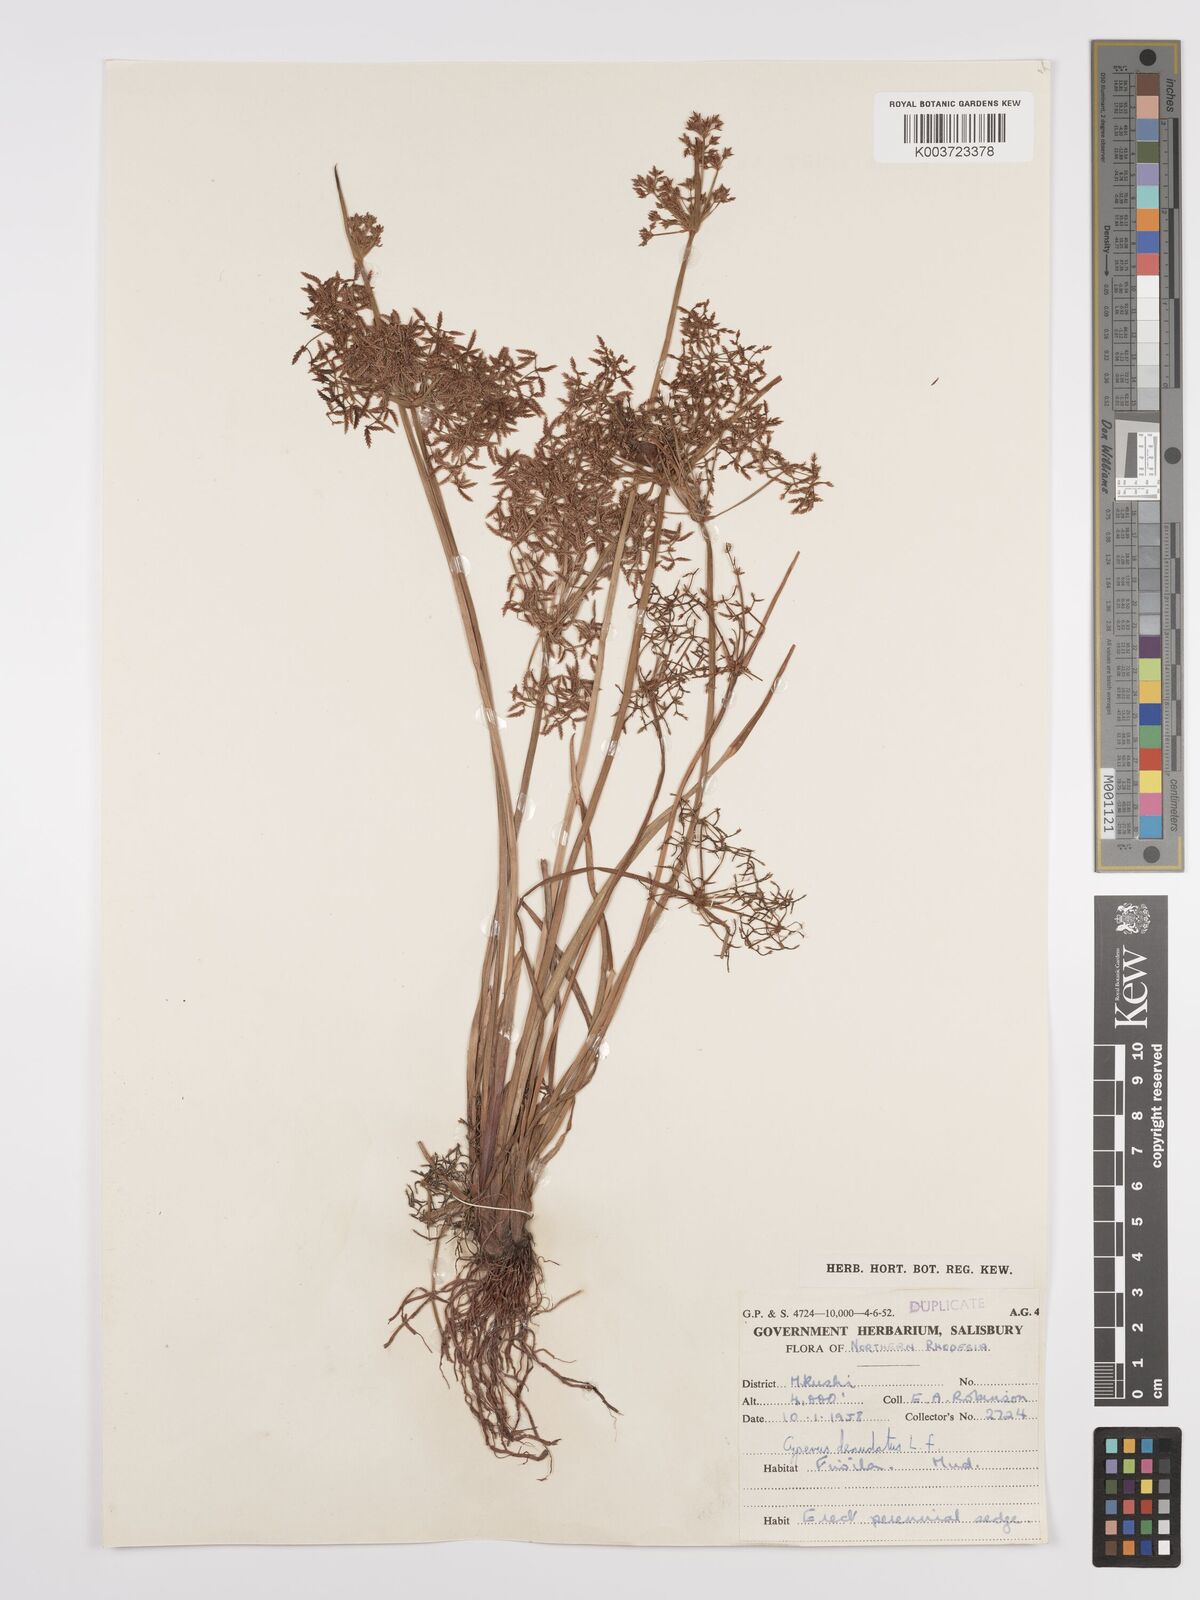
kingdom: Plantae
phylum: Tracheophyta
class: Liliopsida
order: Poales
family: Cyperaceae
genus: Cyperus
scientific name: Cyperus denudatus
